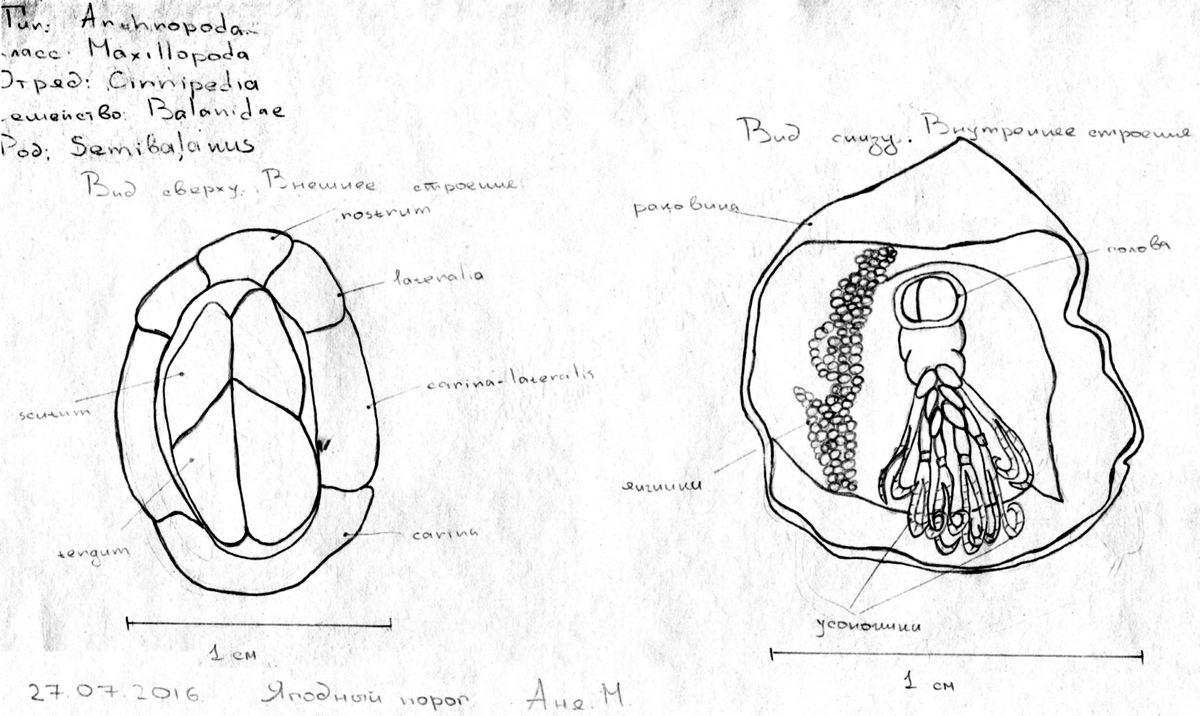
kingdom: Animalia
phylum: Arthropoda
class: Maxillopoda
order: Sessilia
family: Archaeobalanidae
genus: Semibalanus
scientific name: Semibalanus balanoides
